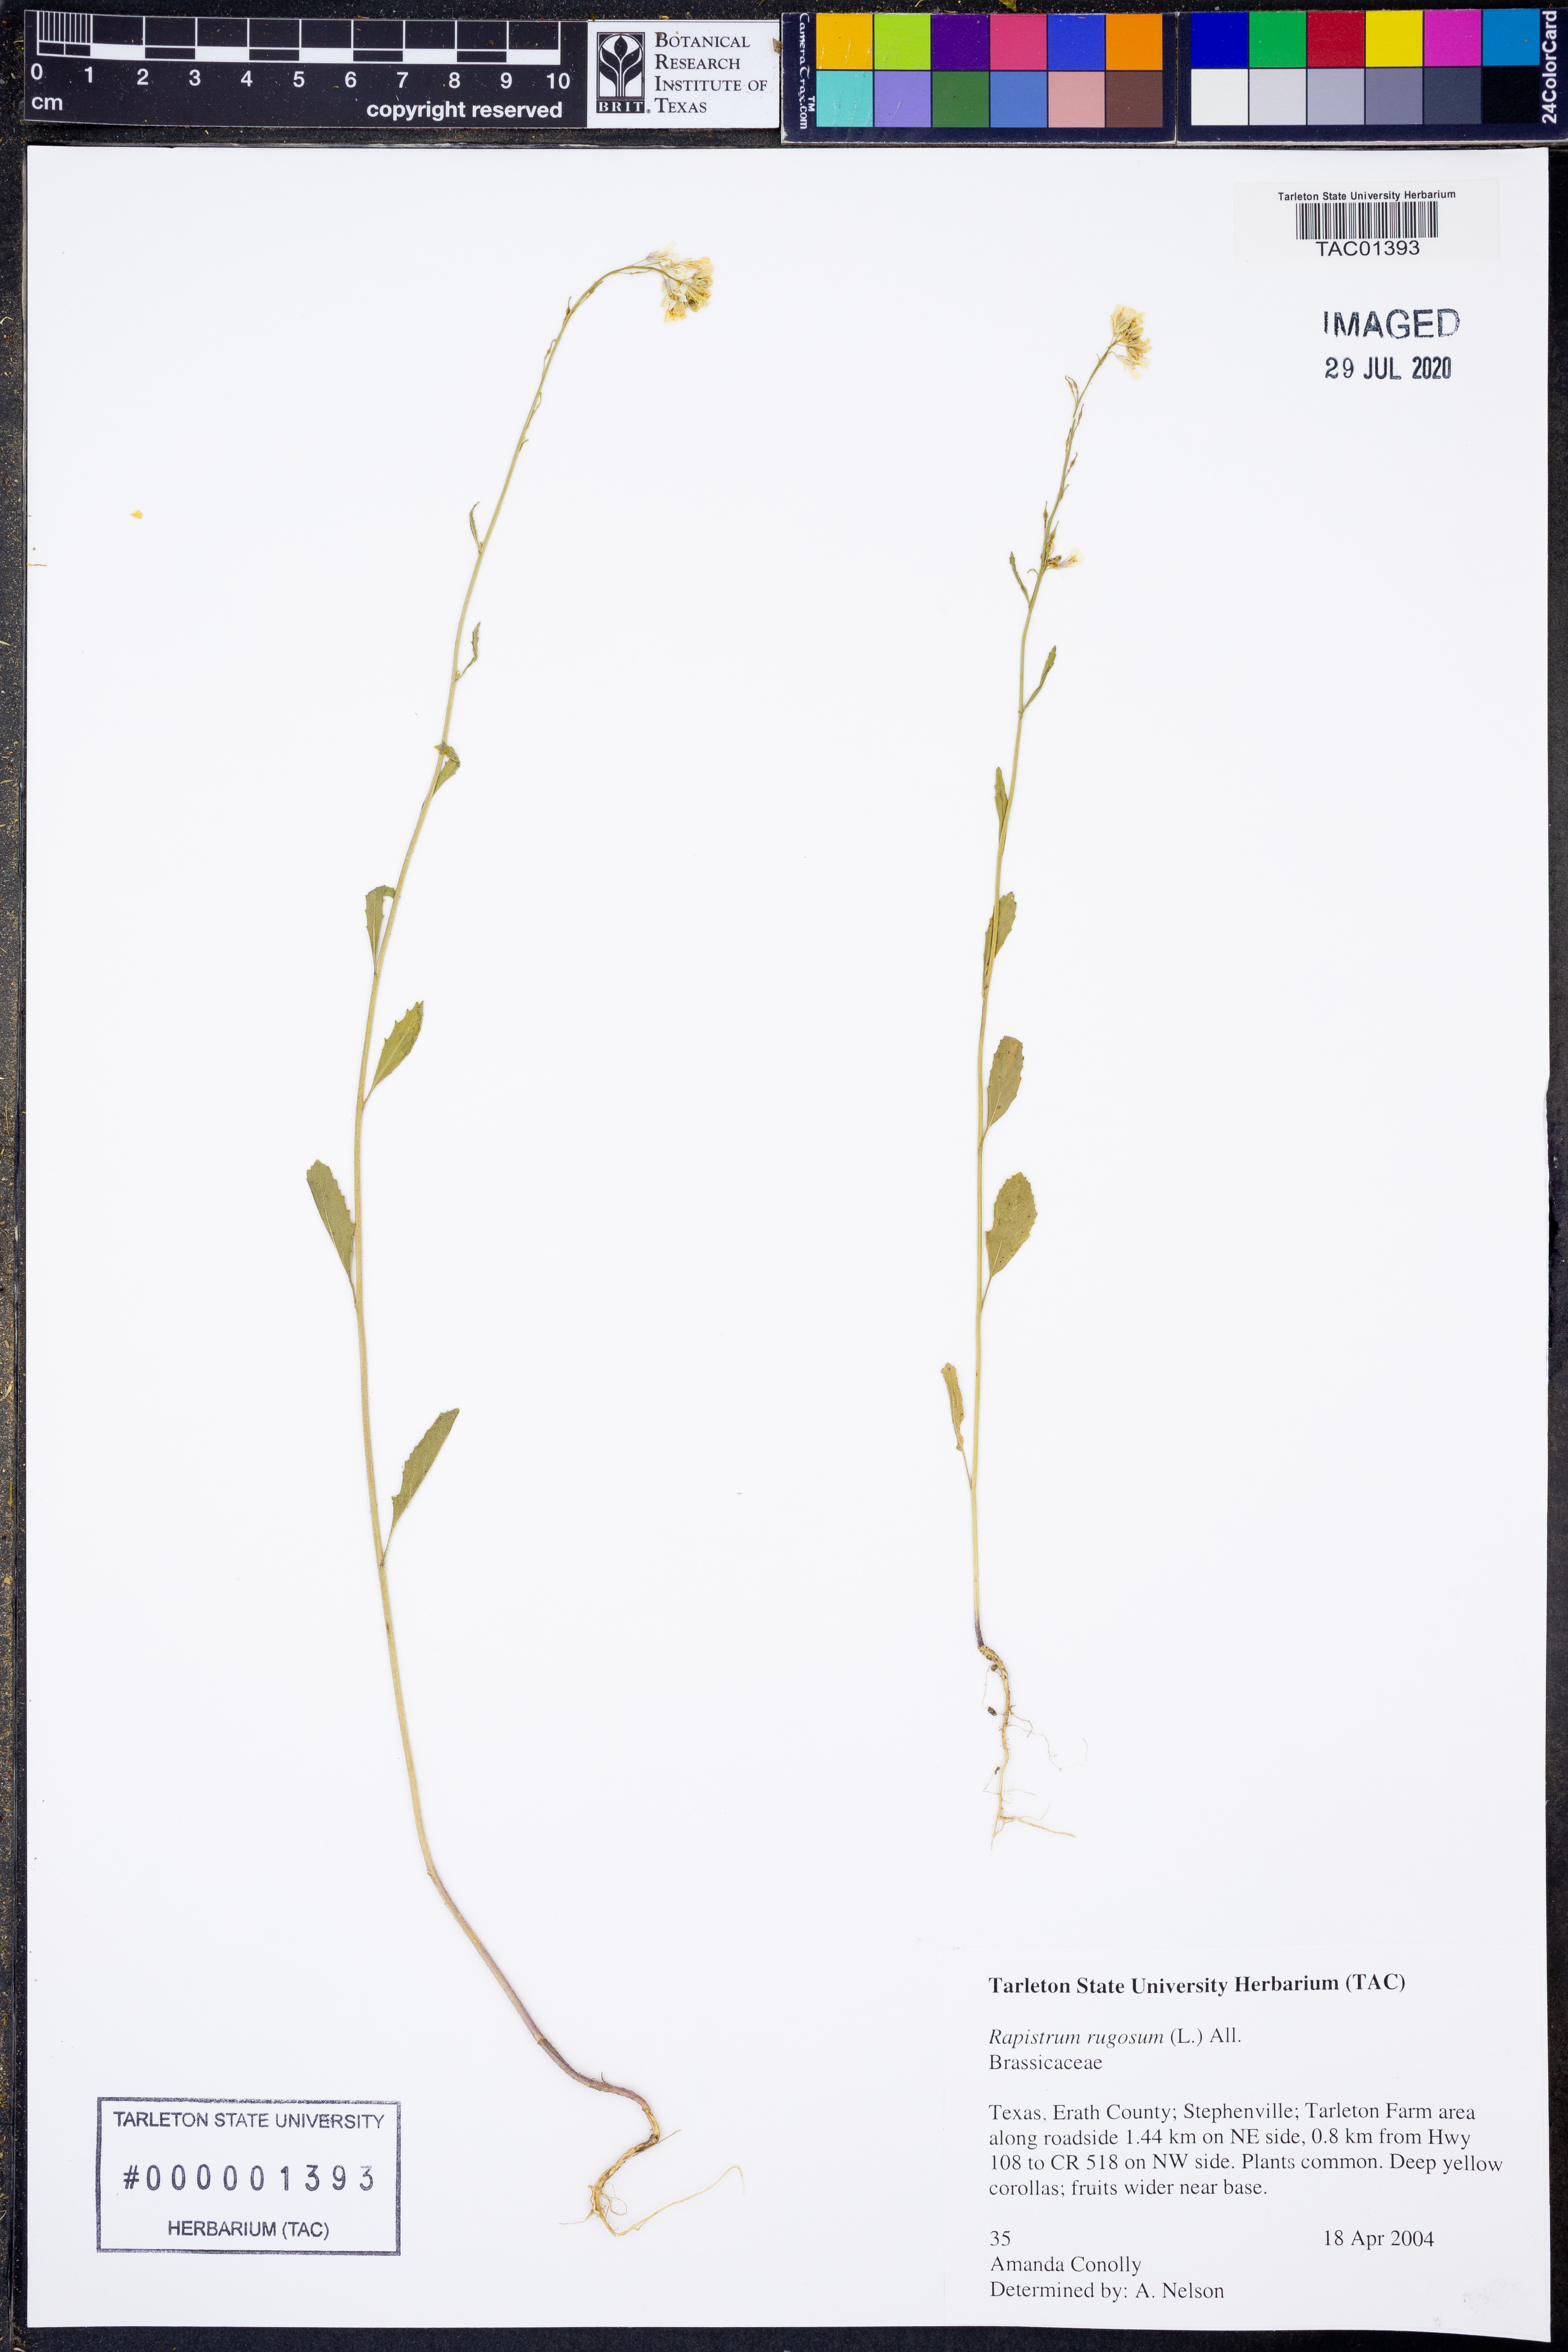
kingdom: Plantae
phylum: Tracheophyta
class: Magnoliopsida
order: Brassicales
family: Brassicaceae
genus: Rapistrum
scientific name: Rapistrum rugosum
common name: Annual bastardcabbage
